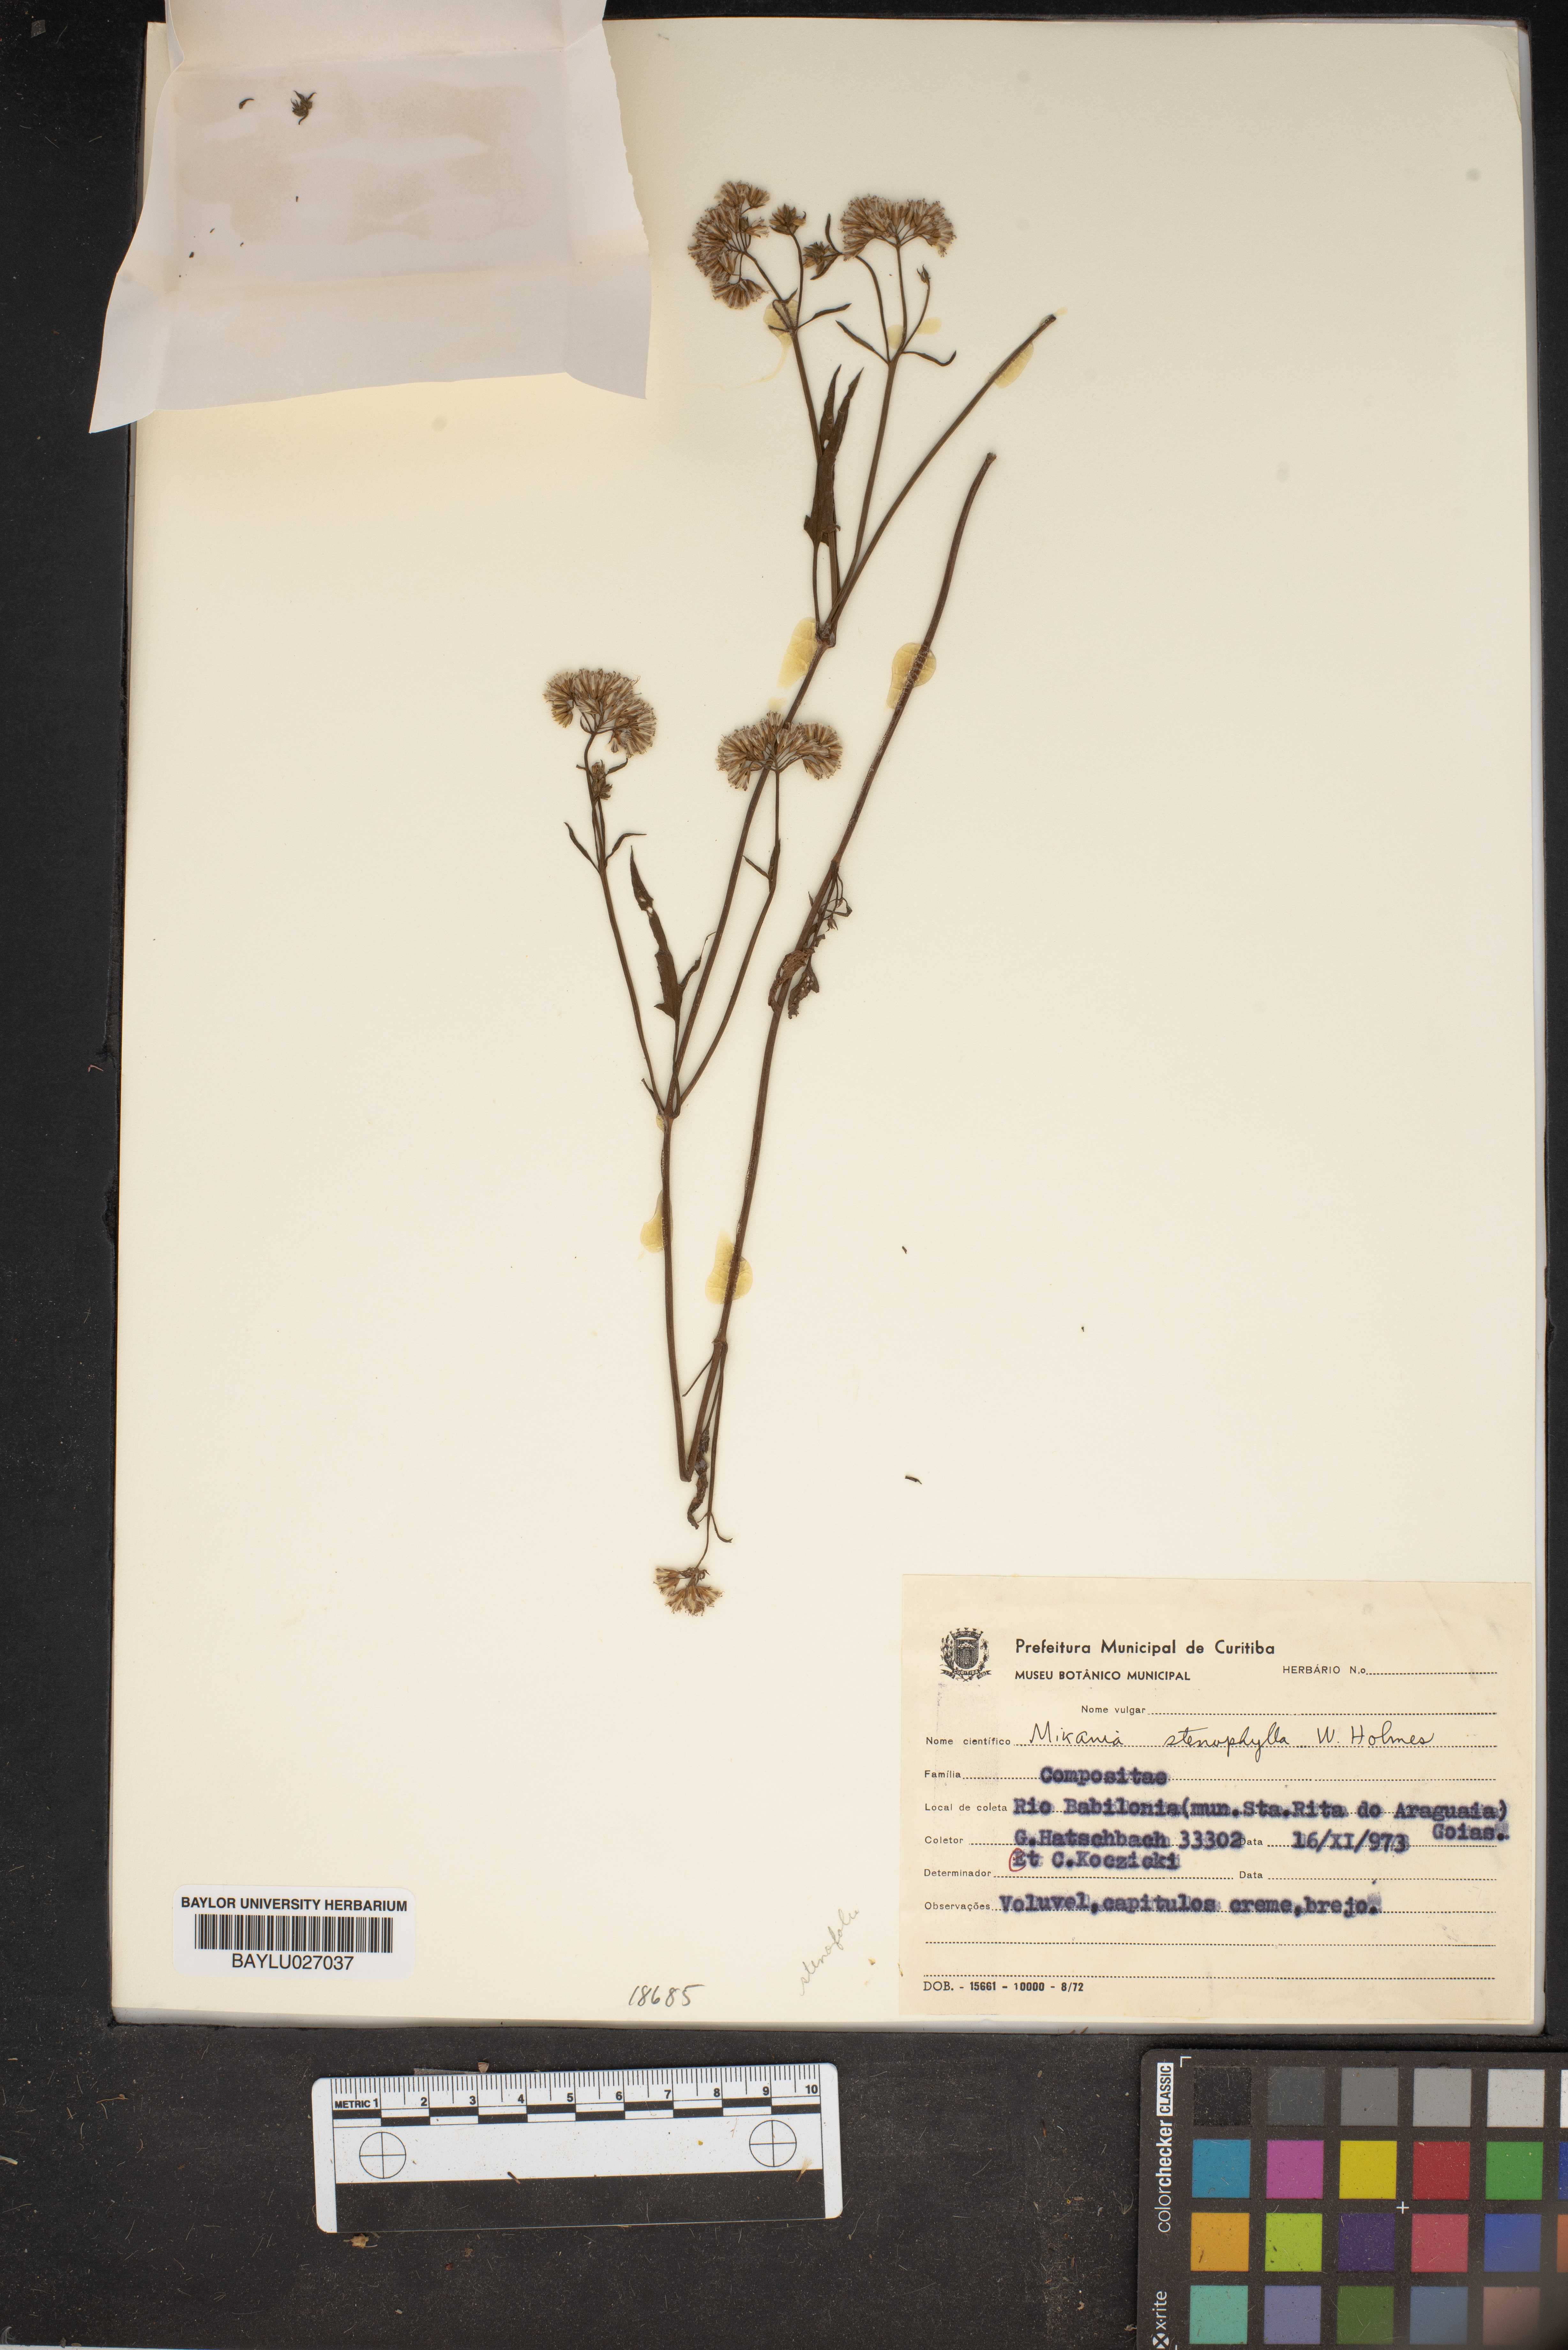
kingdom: Plantae
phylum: Tracheophyta
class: Magnoliopsida
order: Asterales
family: Asteraceae
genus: Mikania
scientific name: Mikania stenophylla
